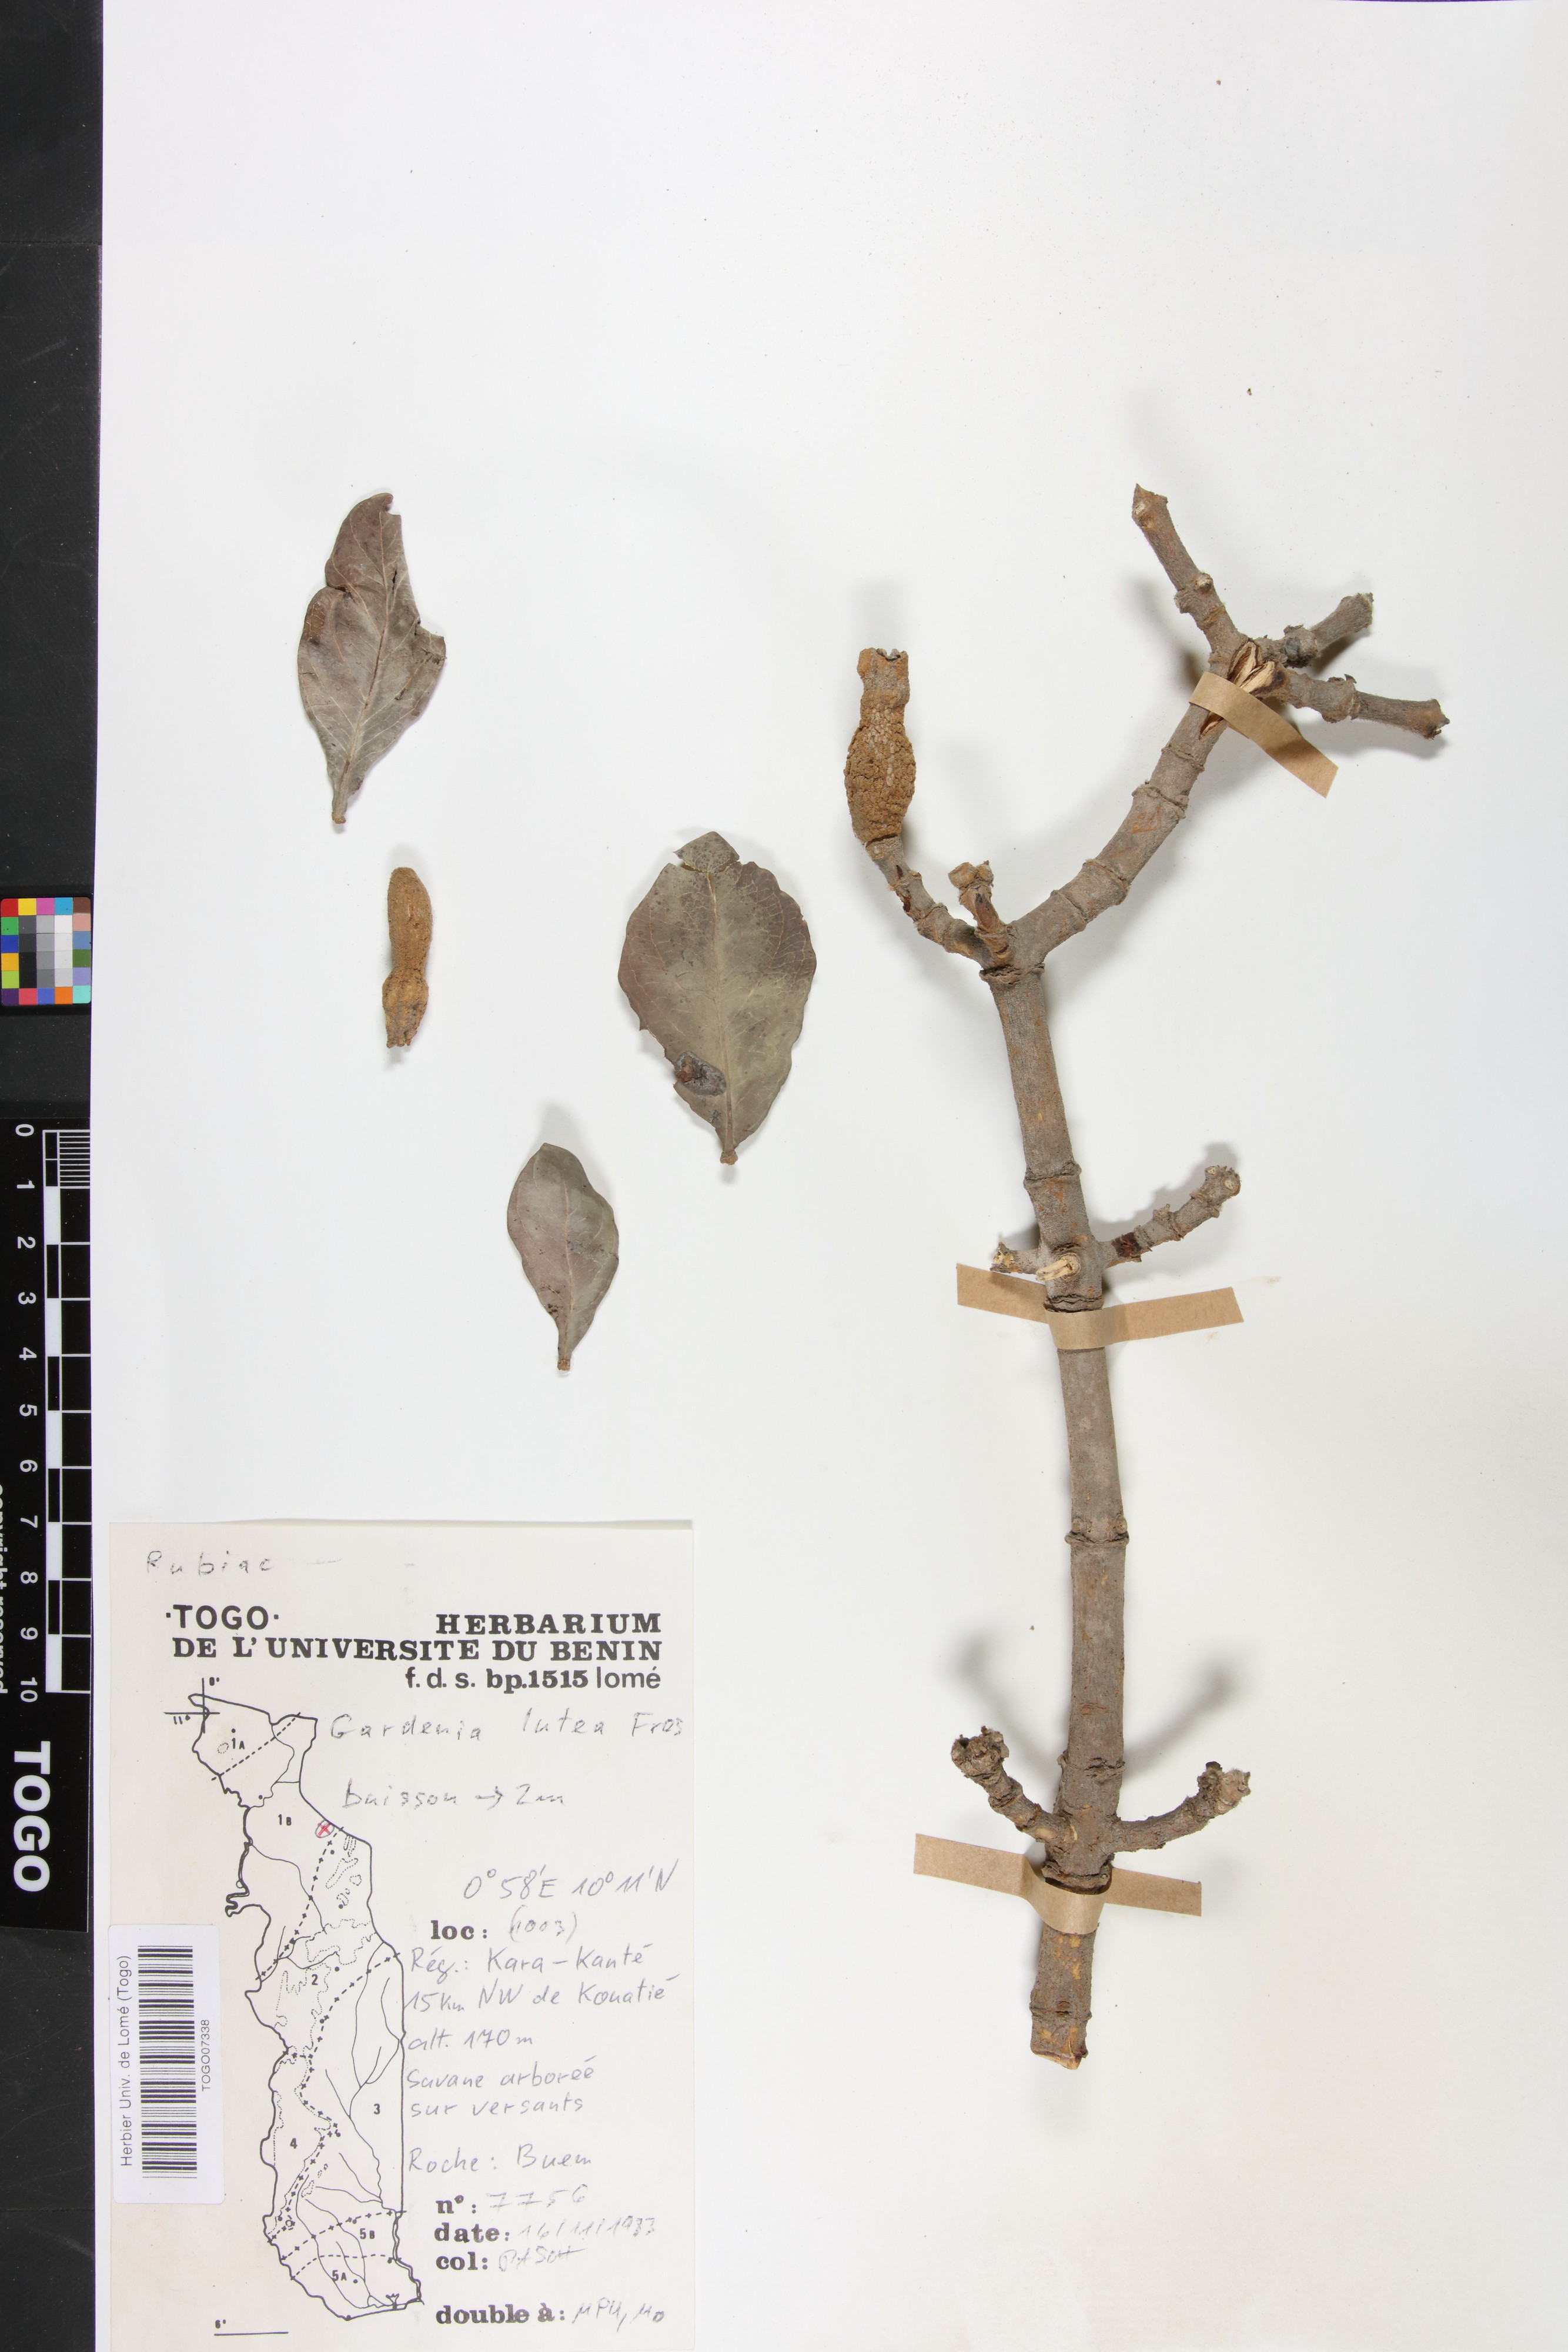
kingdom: Plantae
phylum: Tracheophyta
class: Magnoliopsida
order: Gentianales
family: Rubiaceae
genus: Gardenia
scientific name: Gardenia ternifolia
